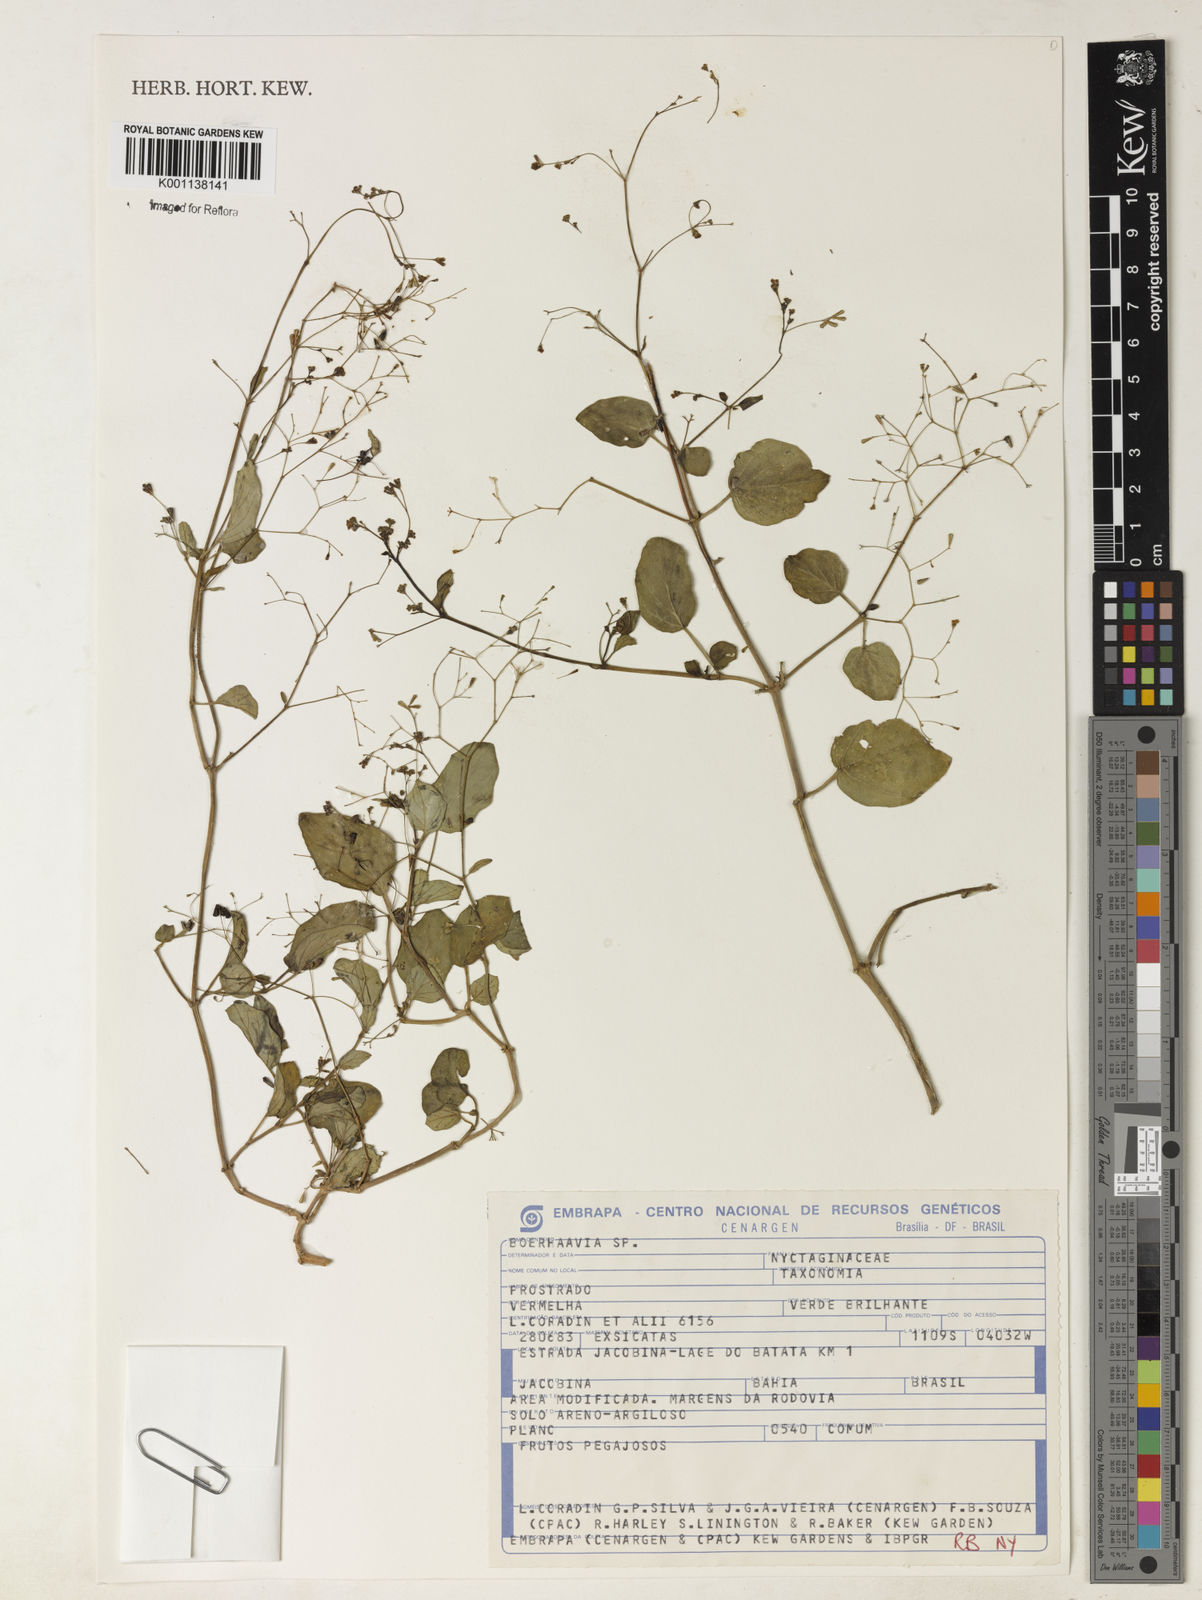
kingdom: Plantae
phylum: Tracheophyta
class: Magnoliopsida
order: Caryophyllales
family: Nyctaginaceae
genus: Boerhavia
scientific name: Boerhavia
